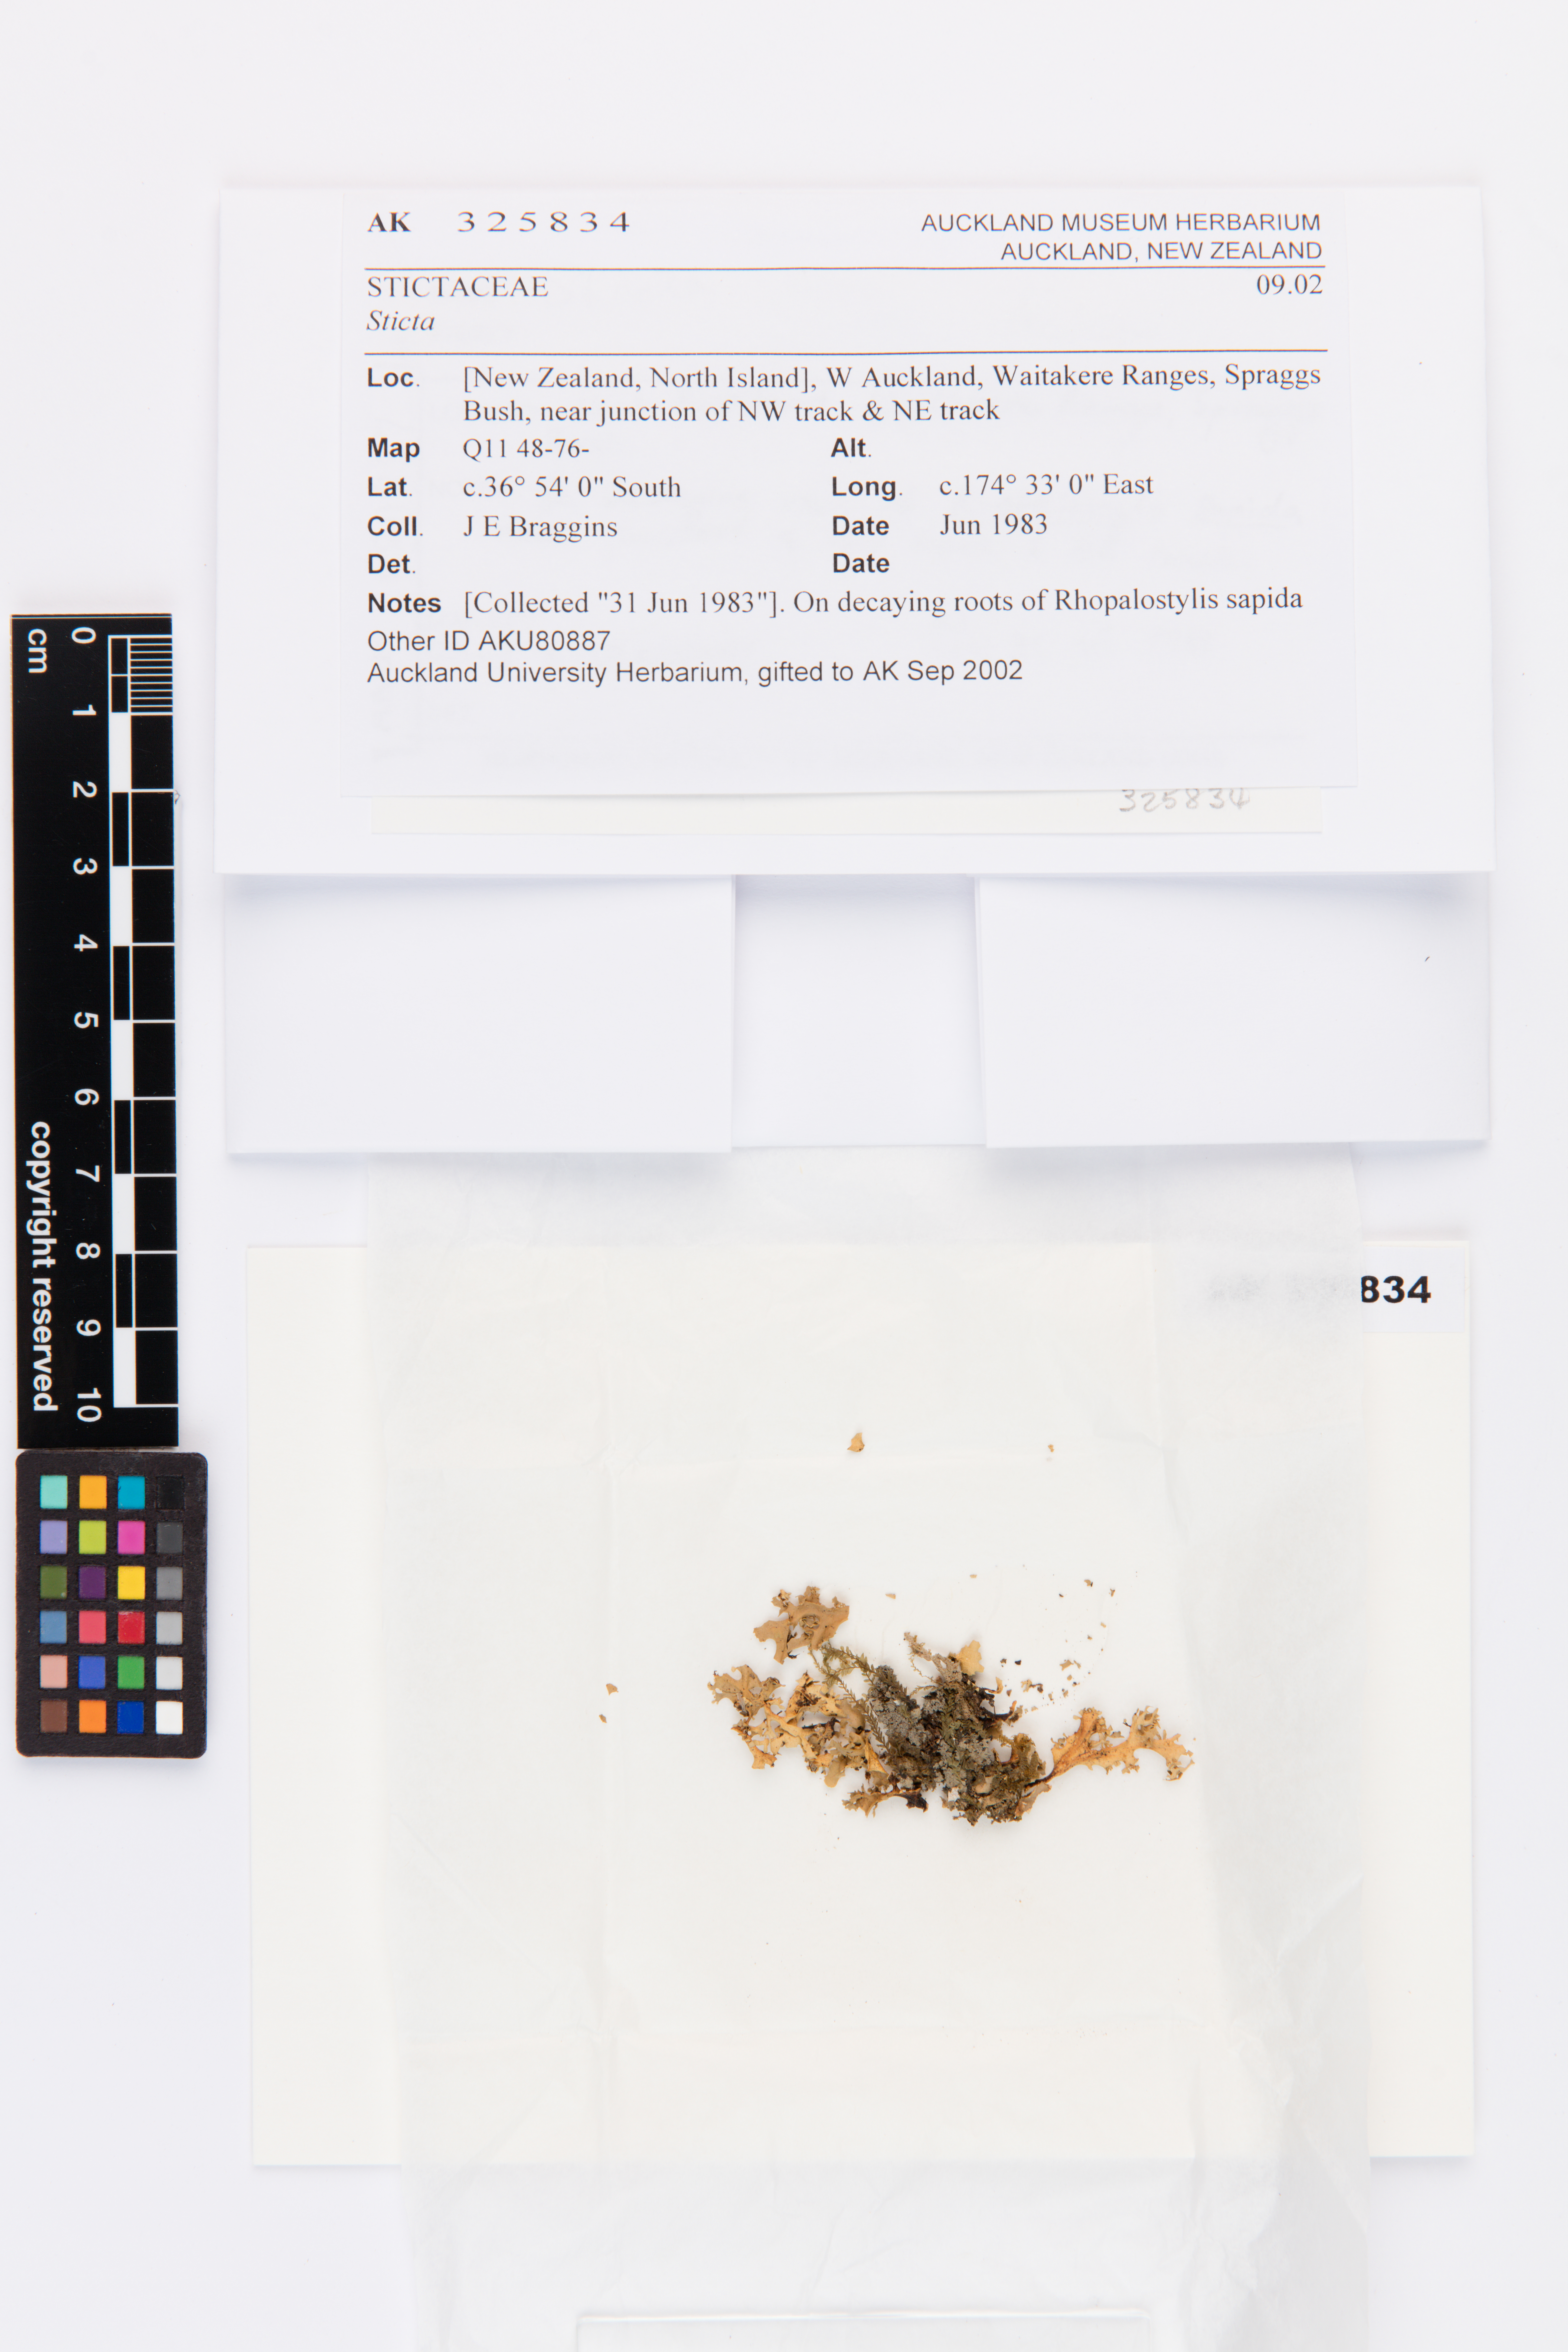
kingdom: Fungi
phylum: Ascomycota
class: Lecanoromycetes
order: Peltigerales
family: Lobariaceae
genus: Sticta
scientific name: Sticta
